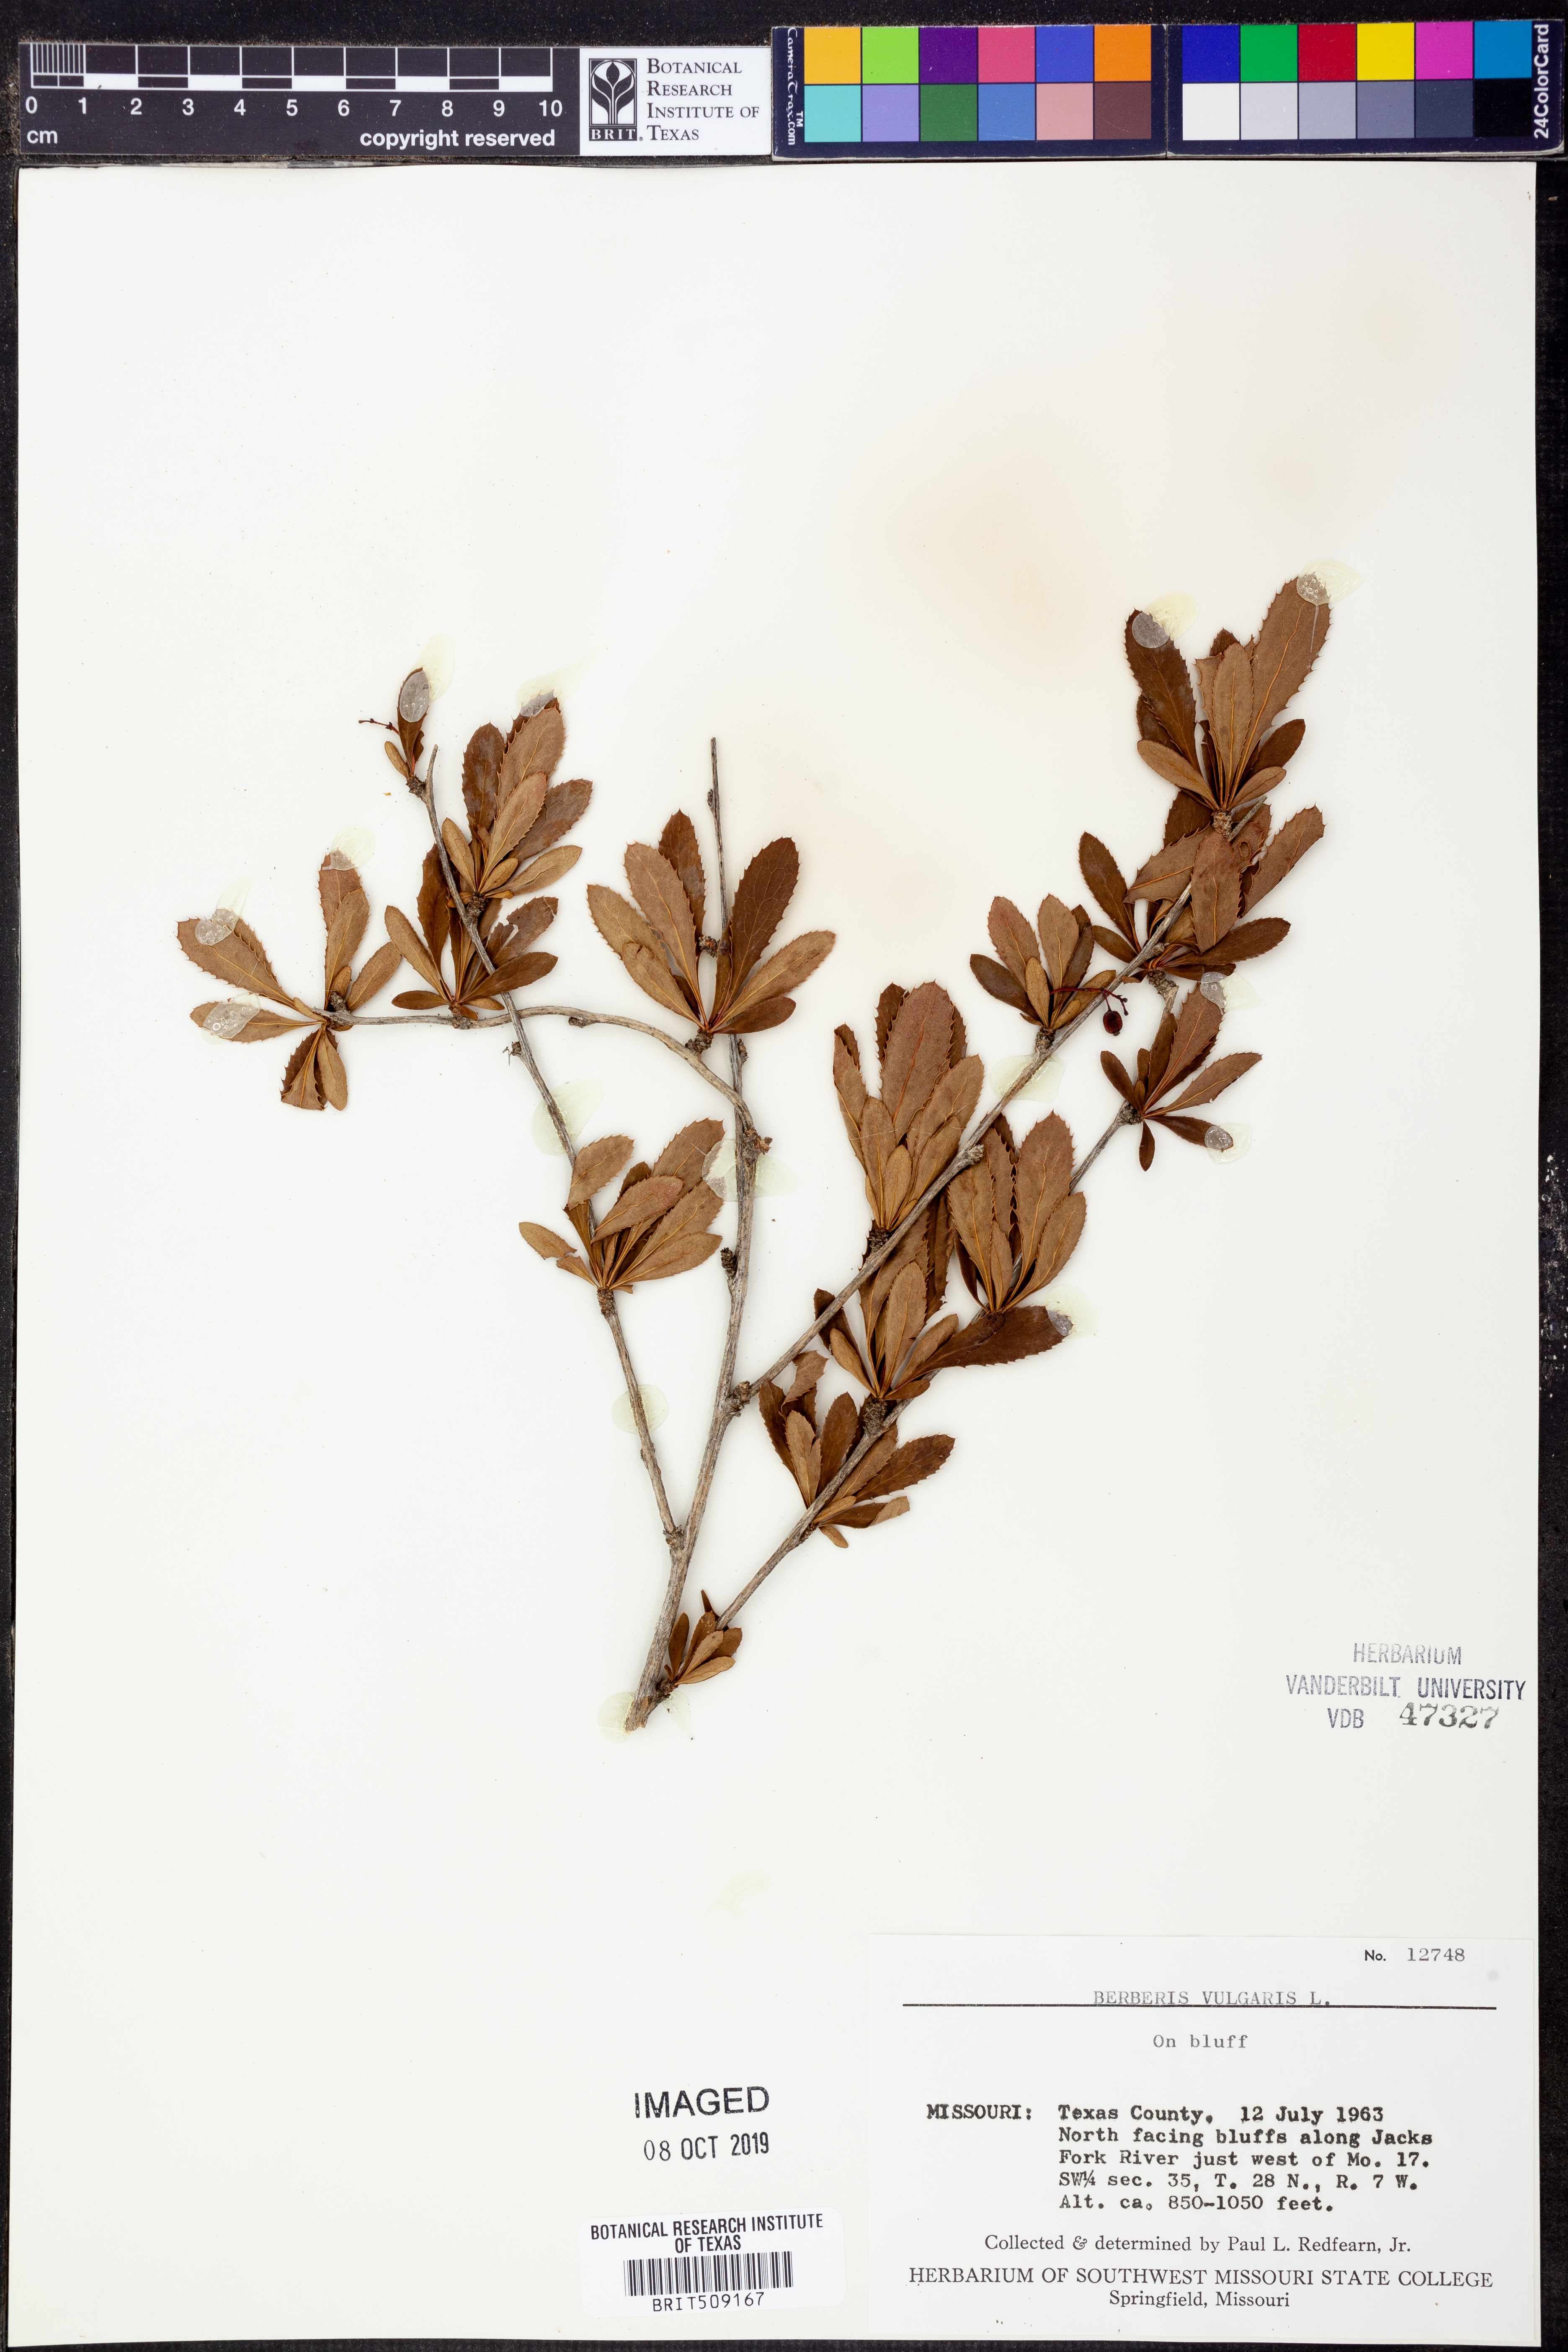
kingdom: Plantae
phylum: Tracheophyta
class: Magnoliopsida
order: Ranunculales
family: Berberidaceae
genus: Berberis
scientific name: Berberis vulgaris
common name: Barberry
